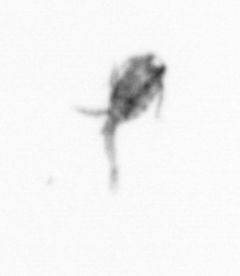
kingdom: Animalia
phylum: Arthropoda
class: Copepoda
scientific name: Copepoda
